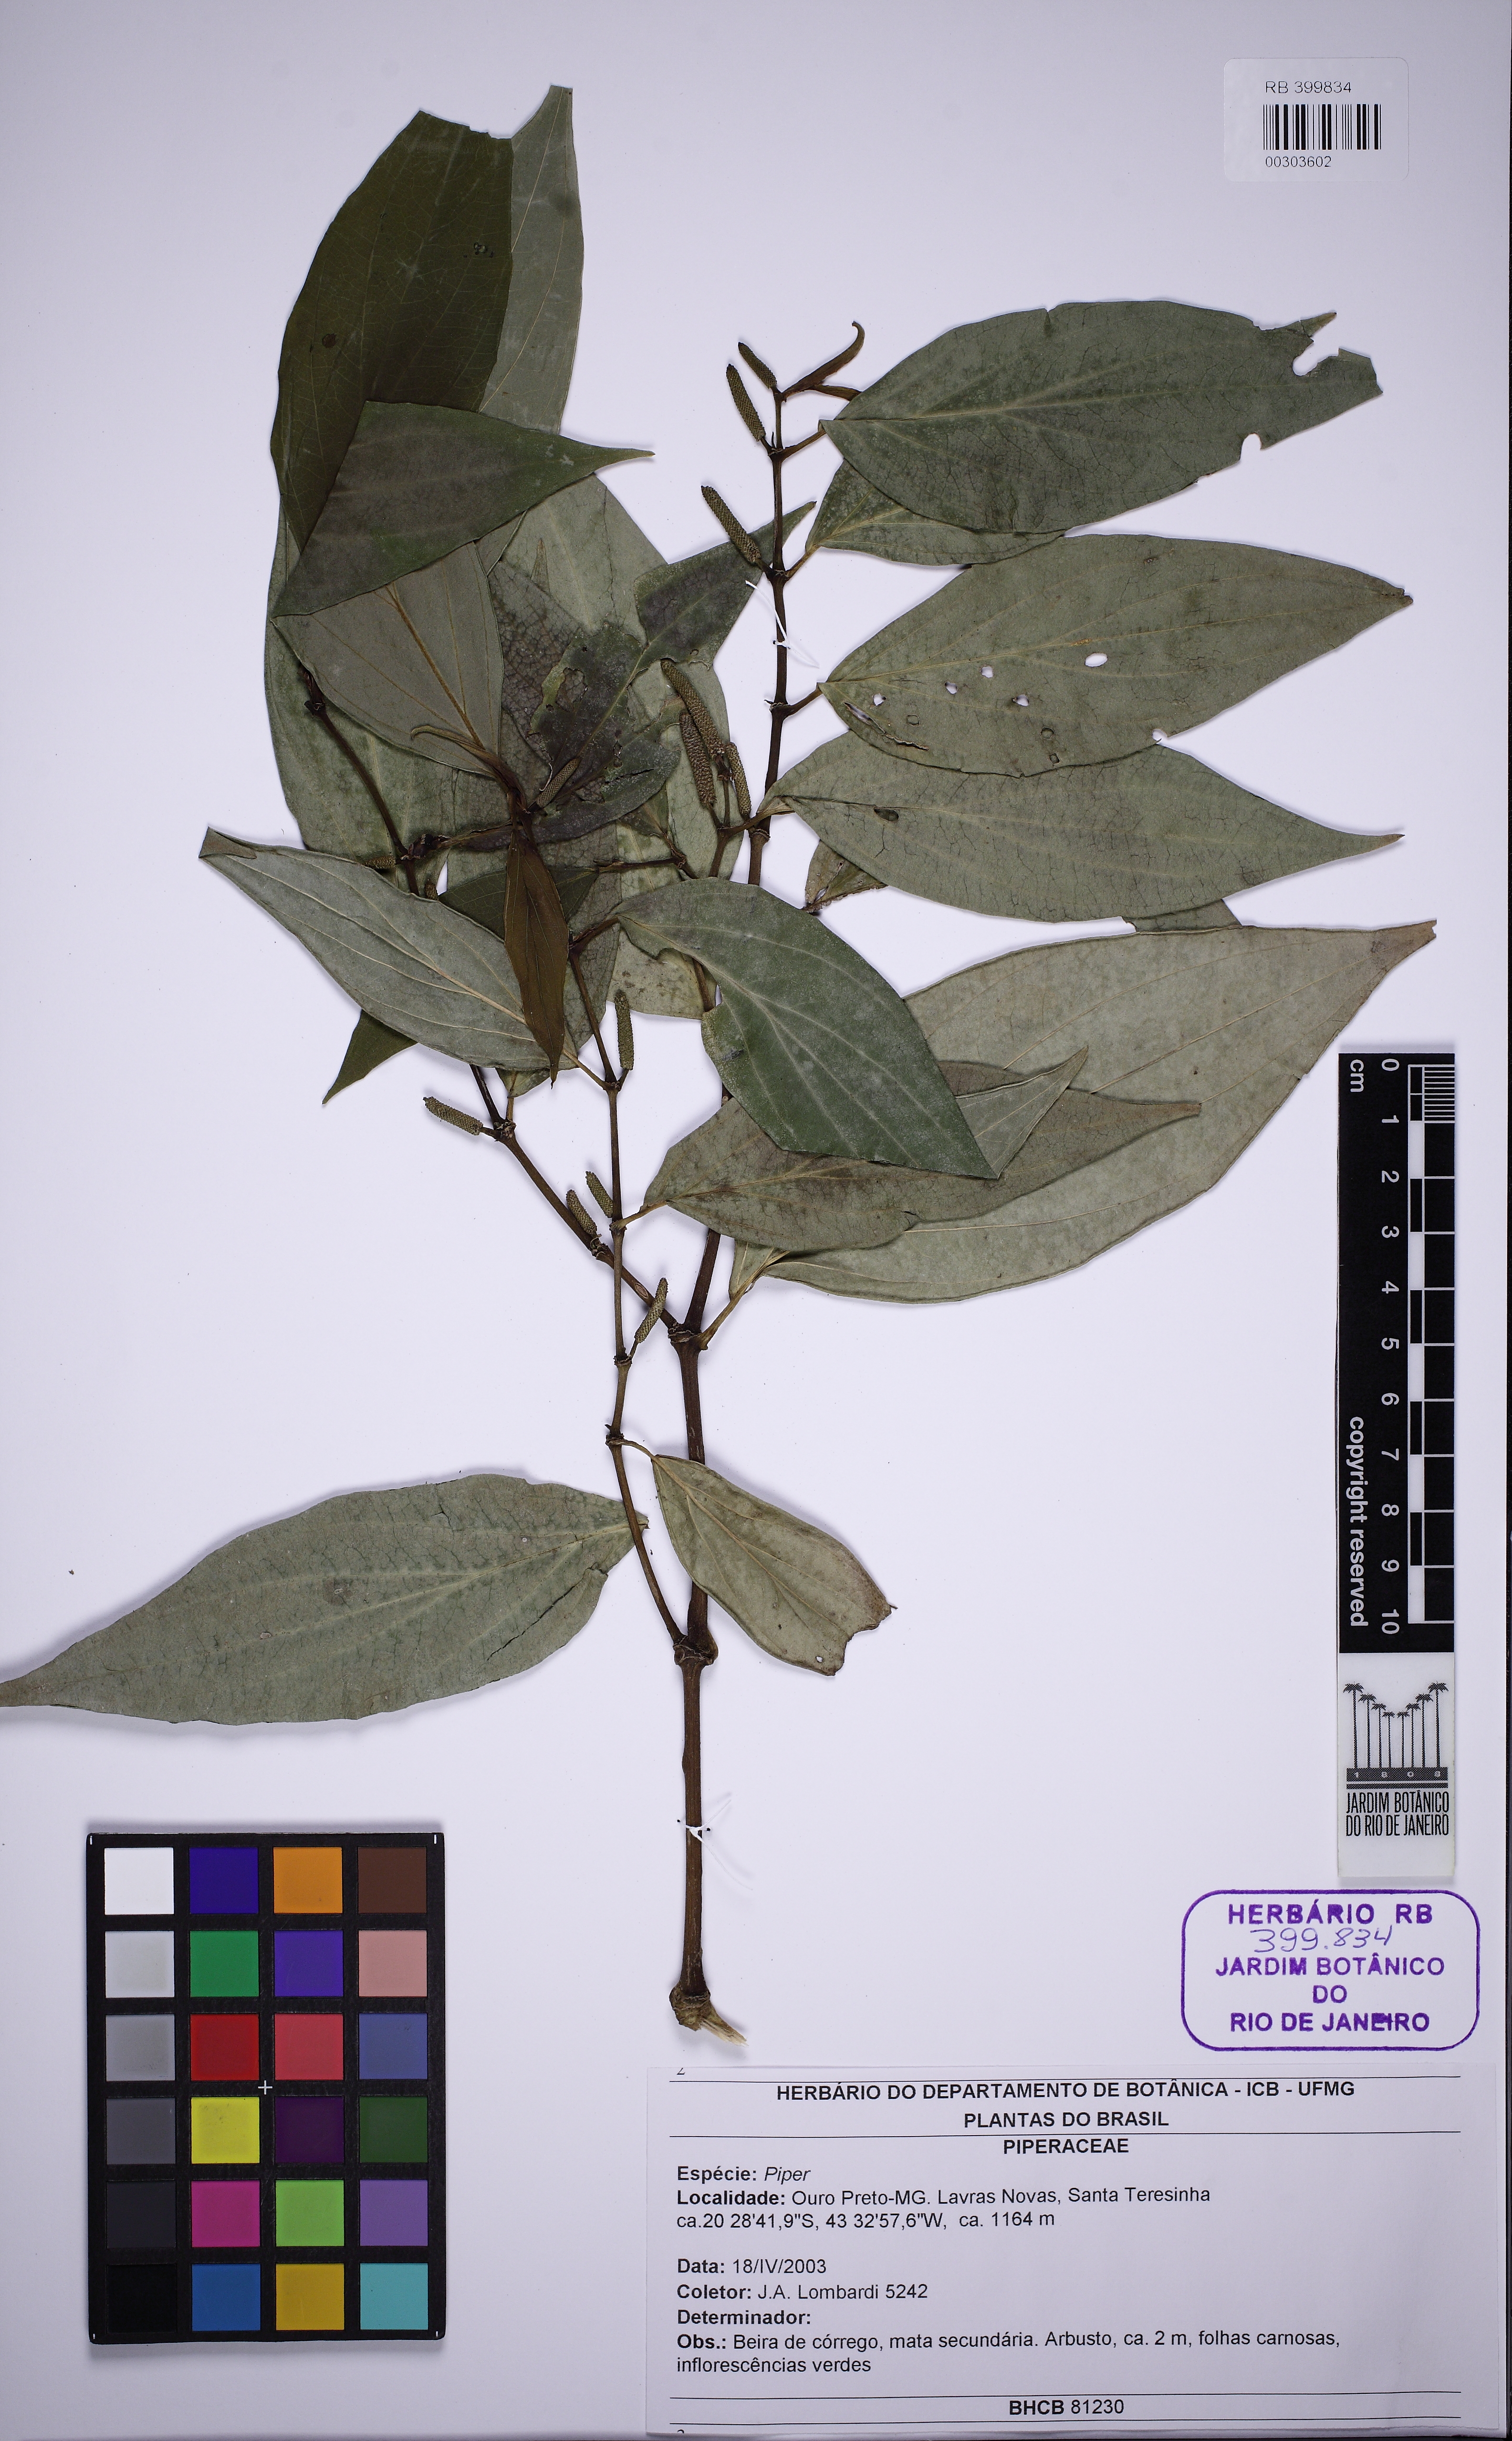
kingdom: Plantae
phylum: Tracheophyta
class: Magnoliopsida
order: Piperales
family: Piperaceae
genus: Piper
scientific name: Piper lhotzkyanum
